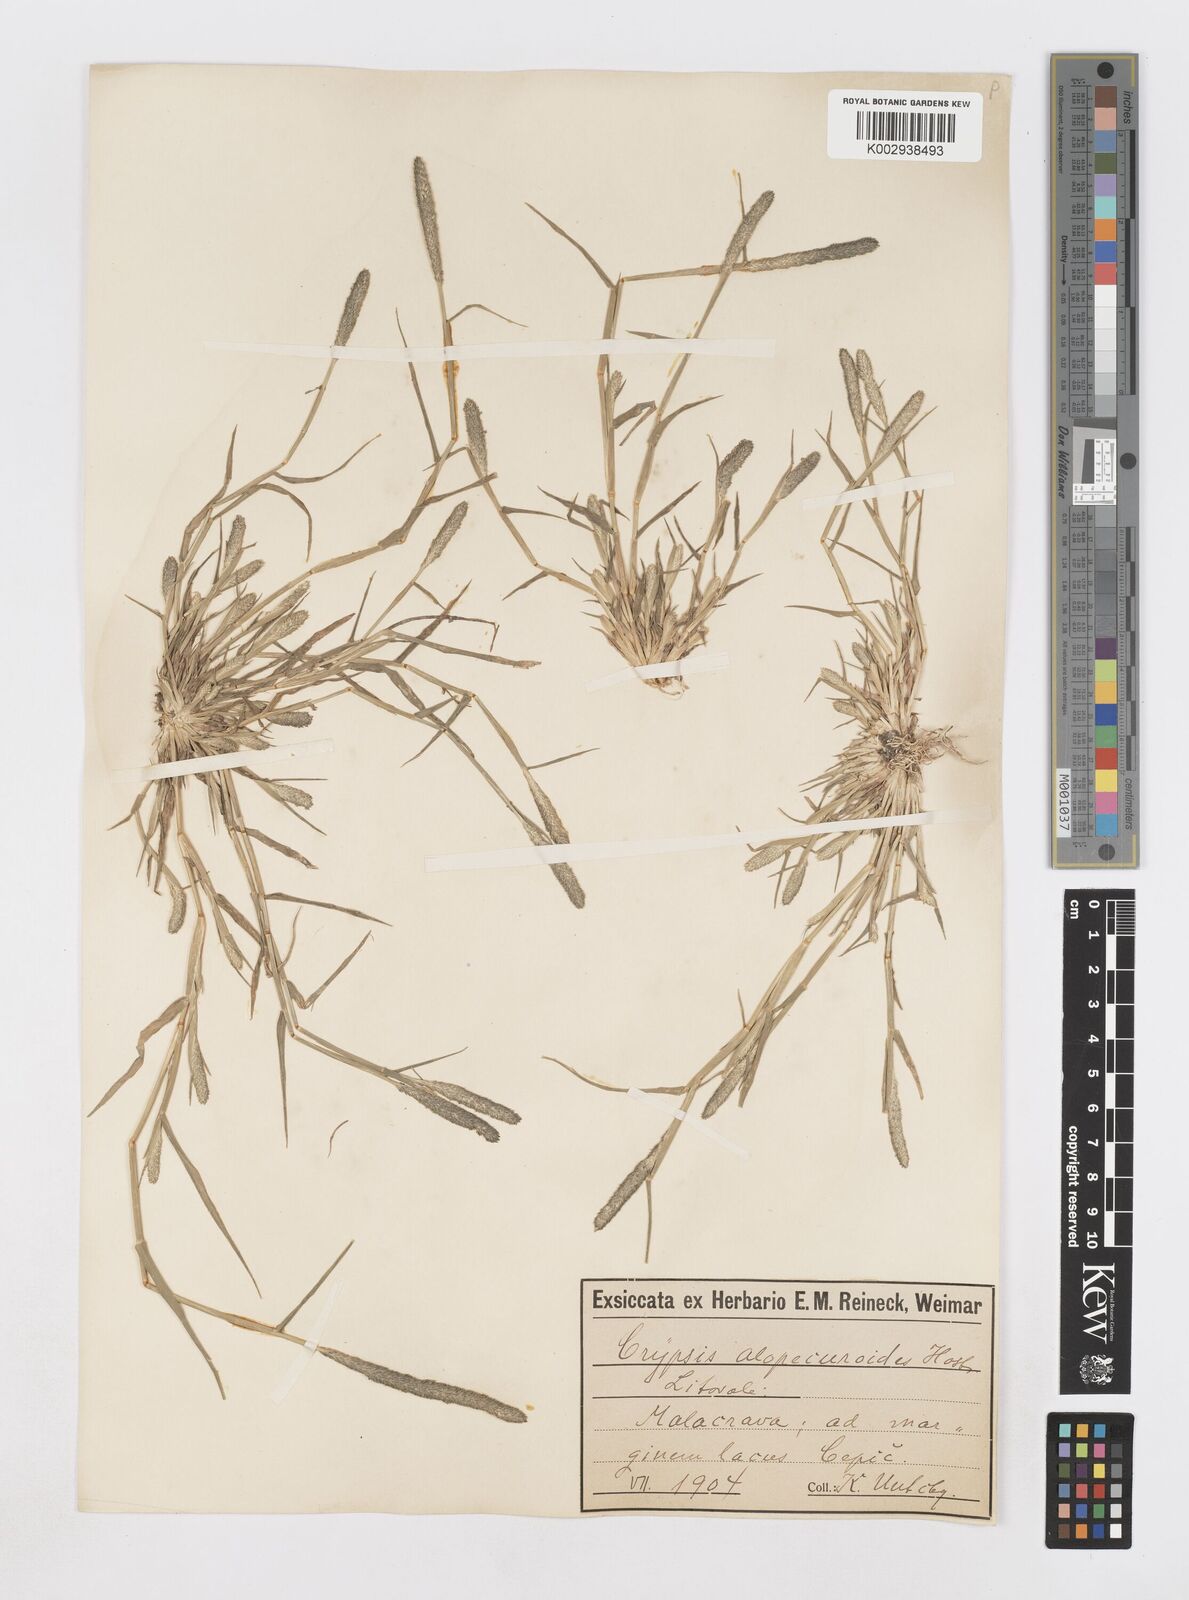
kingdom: Plantae
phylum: Tracheophyta
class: Liliopsida
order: Poales
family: Poaceae
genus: Sporobolus
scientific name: Sporobolus alopecuroides
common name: Foxtail pricklegrass
